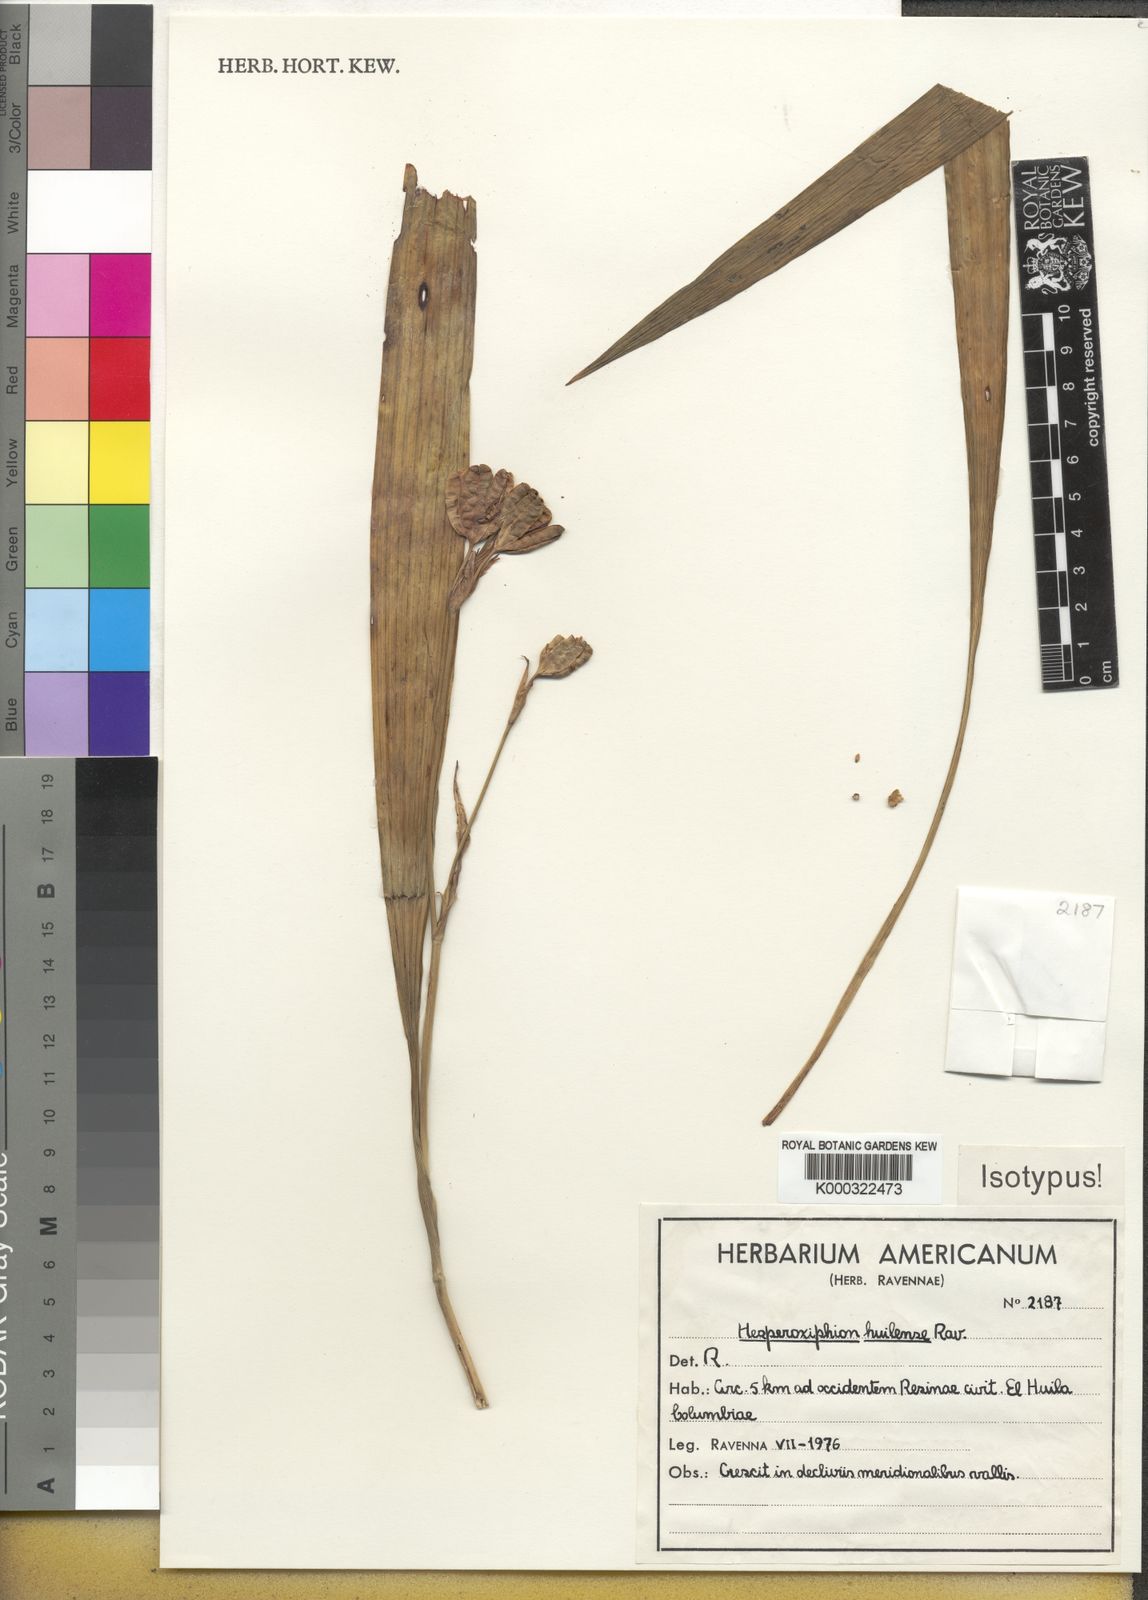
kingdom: Plantae
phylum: Tracheophyta
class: Liliopsida
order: Asparagales
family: Iridaceae
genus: Hesperoxiphion
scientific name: Hesperoxiphion huilense
